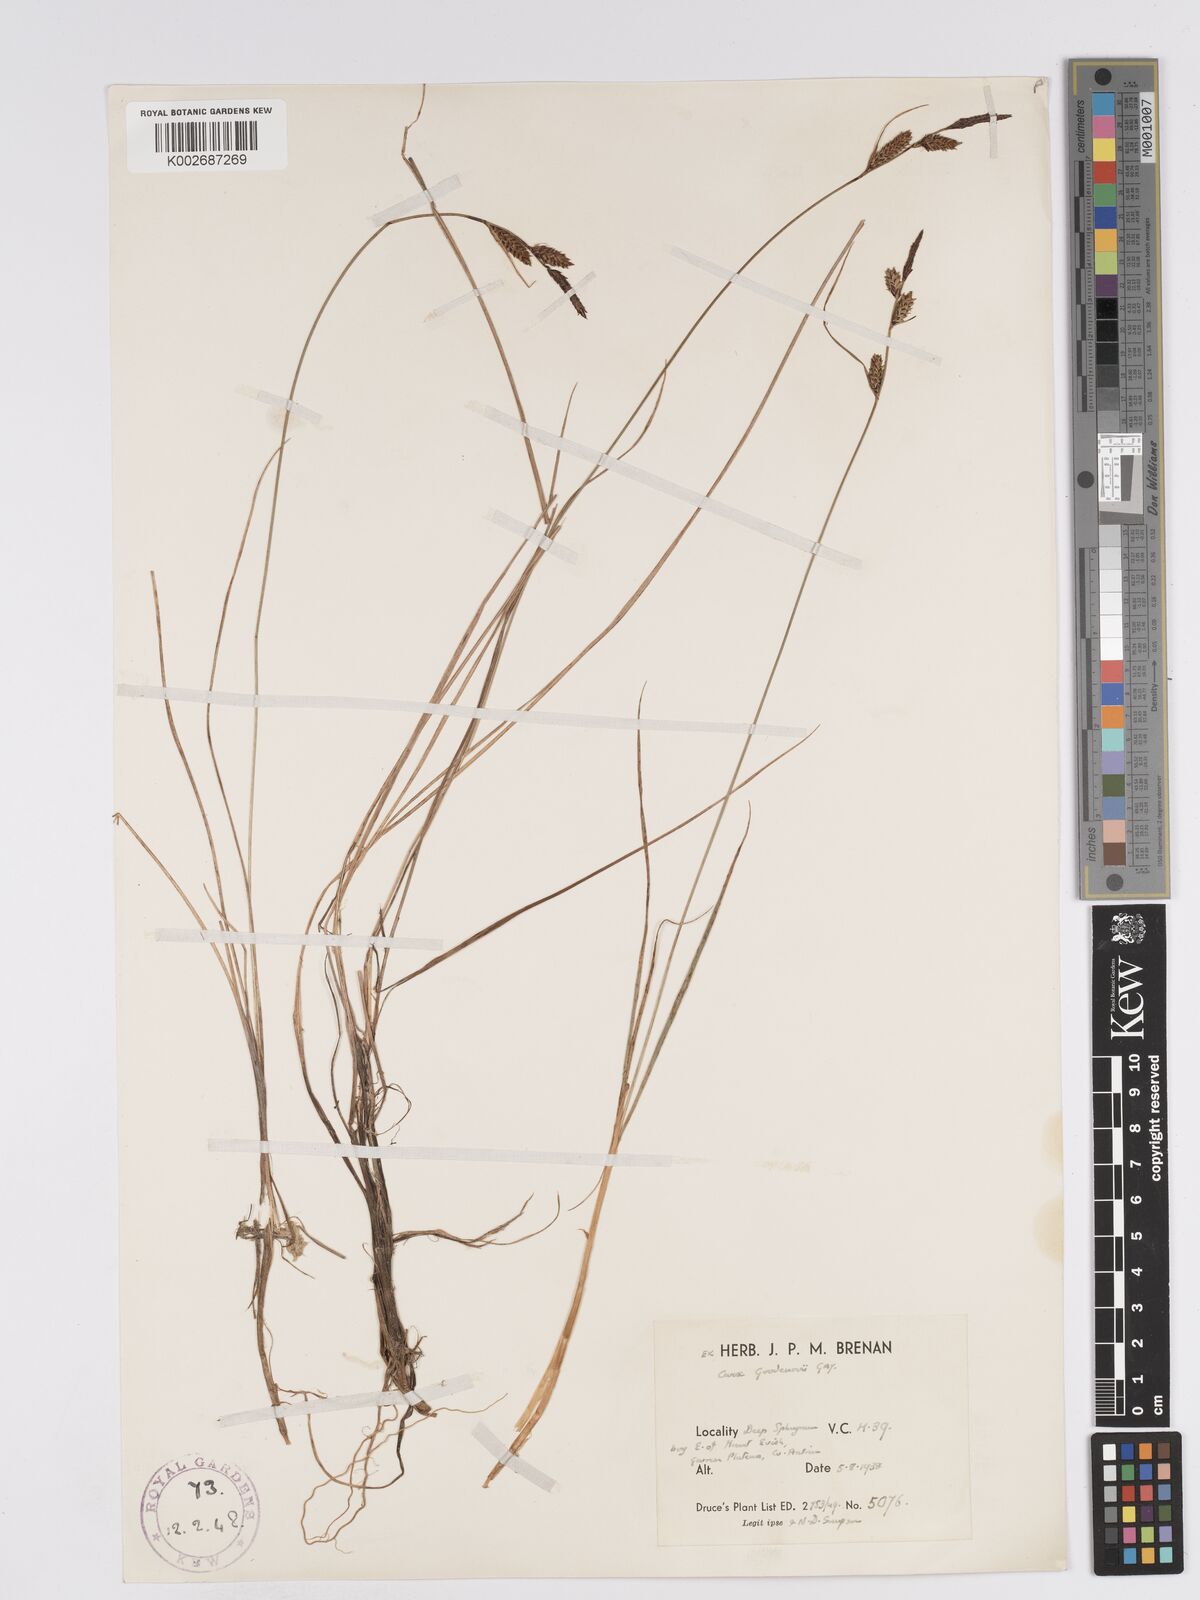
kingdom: Plantae
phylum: Tracheophyta
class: Liliopsida
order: Poales
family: Cyperaceae
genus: Carex
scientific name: Carex nigra
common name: Common sedge
